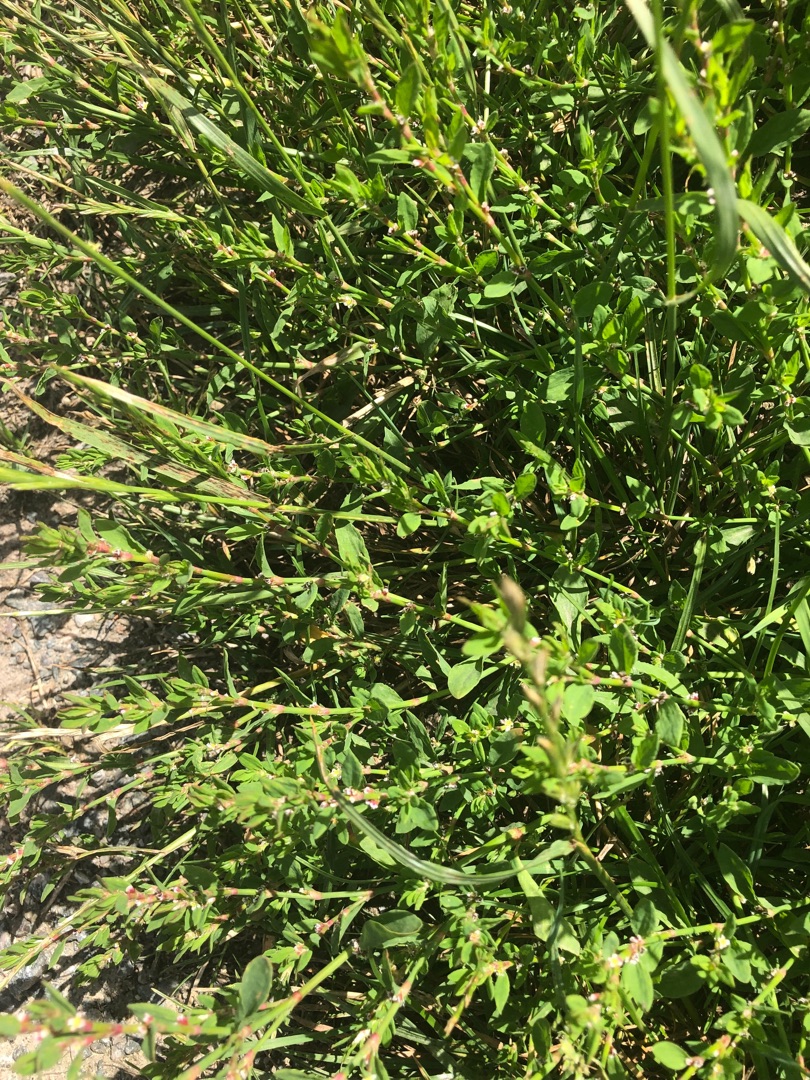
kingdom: Plantae
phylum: Tracheophyta
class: Magnoliopsida
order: Caryophyllales
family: Polygonaceae
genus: Polygonum
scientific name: Polygonum aviculare
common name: Vej-pileurt
